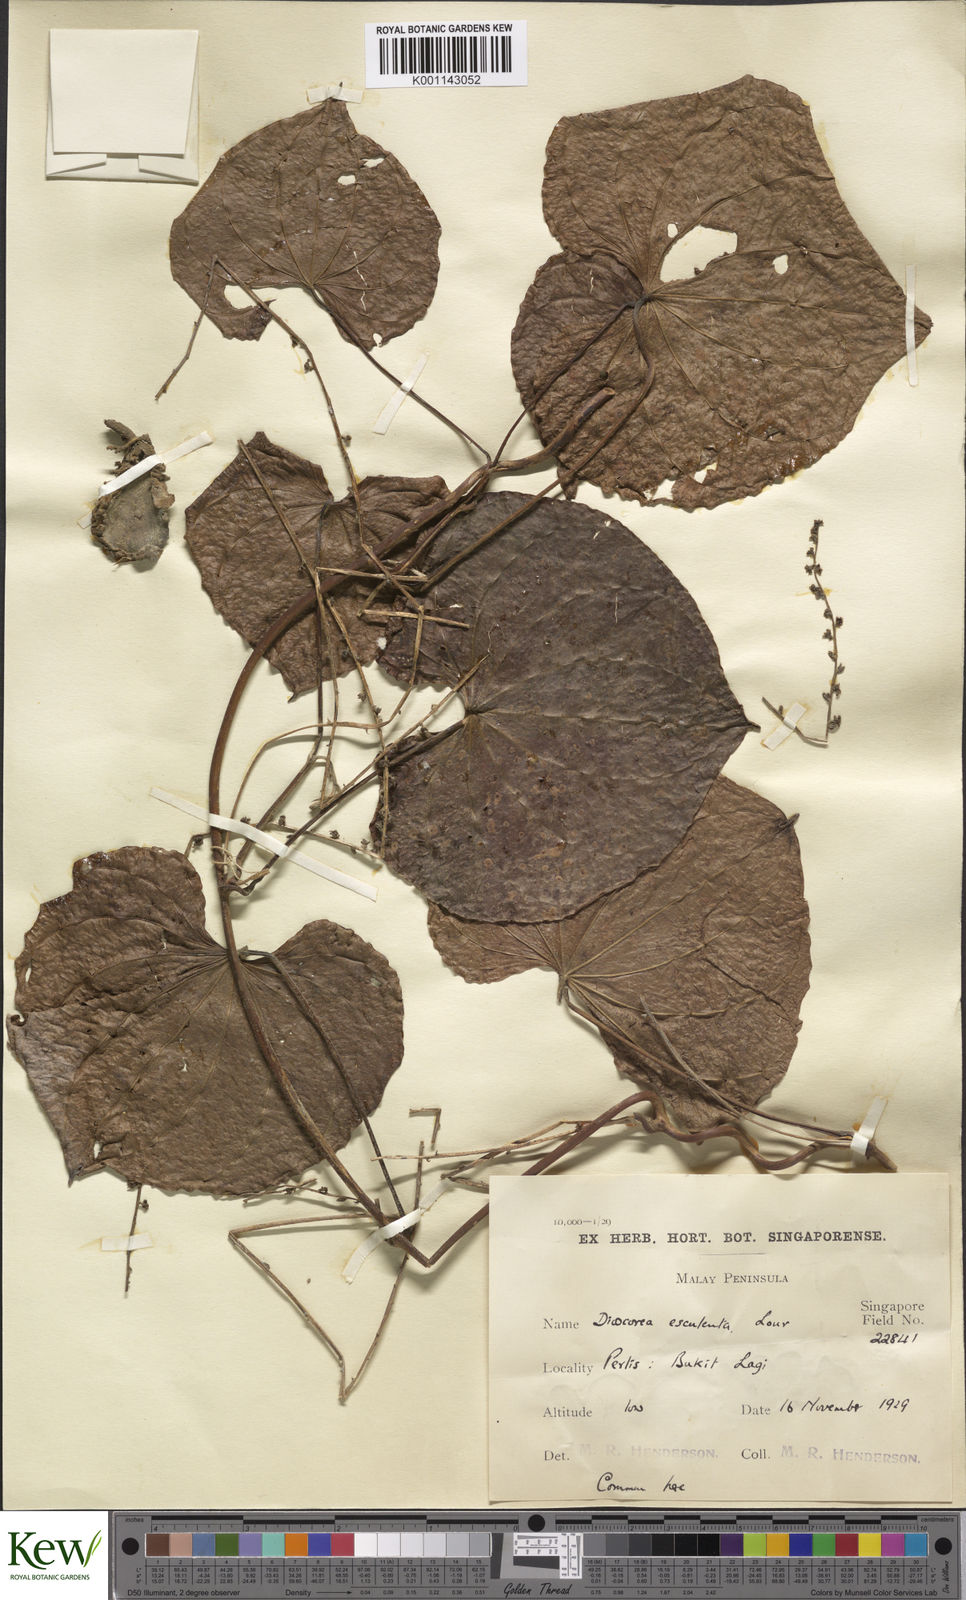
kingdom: Plantae
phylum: Tracheophyta
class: Liliopsida
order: Dioscoreales
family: Dioscoreaceae
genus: Dioscorea
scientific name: Dioscorea esculenta
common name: Chinese yam
